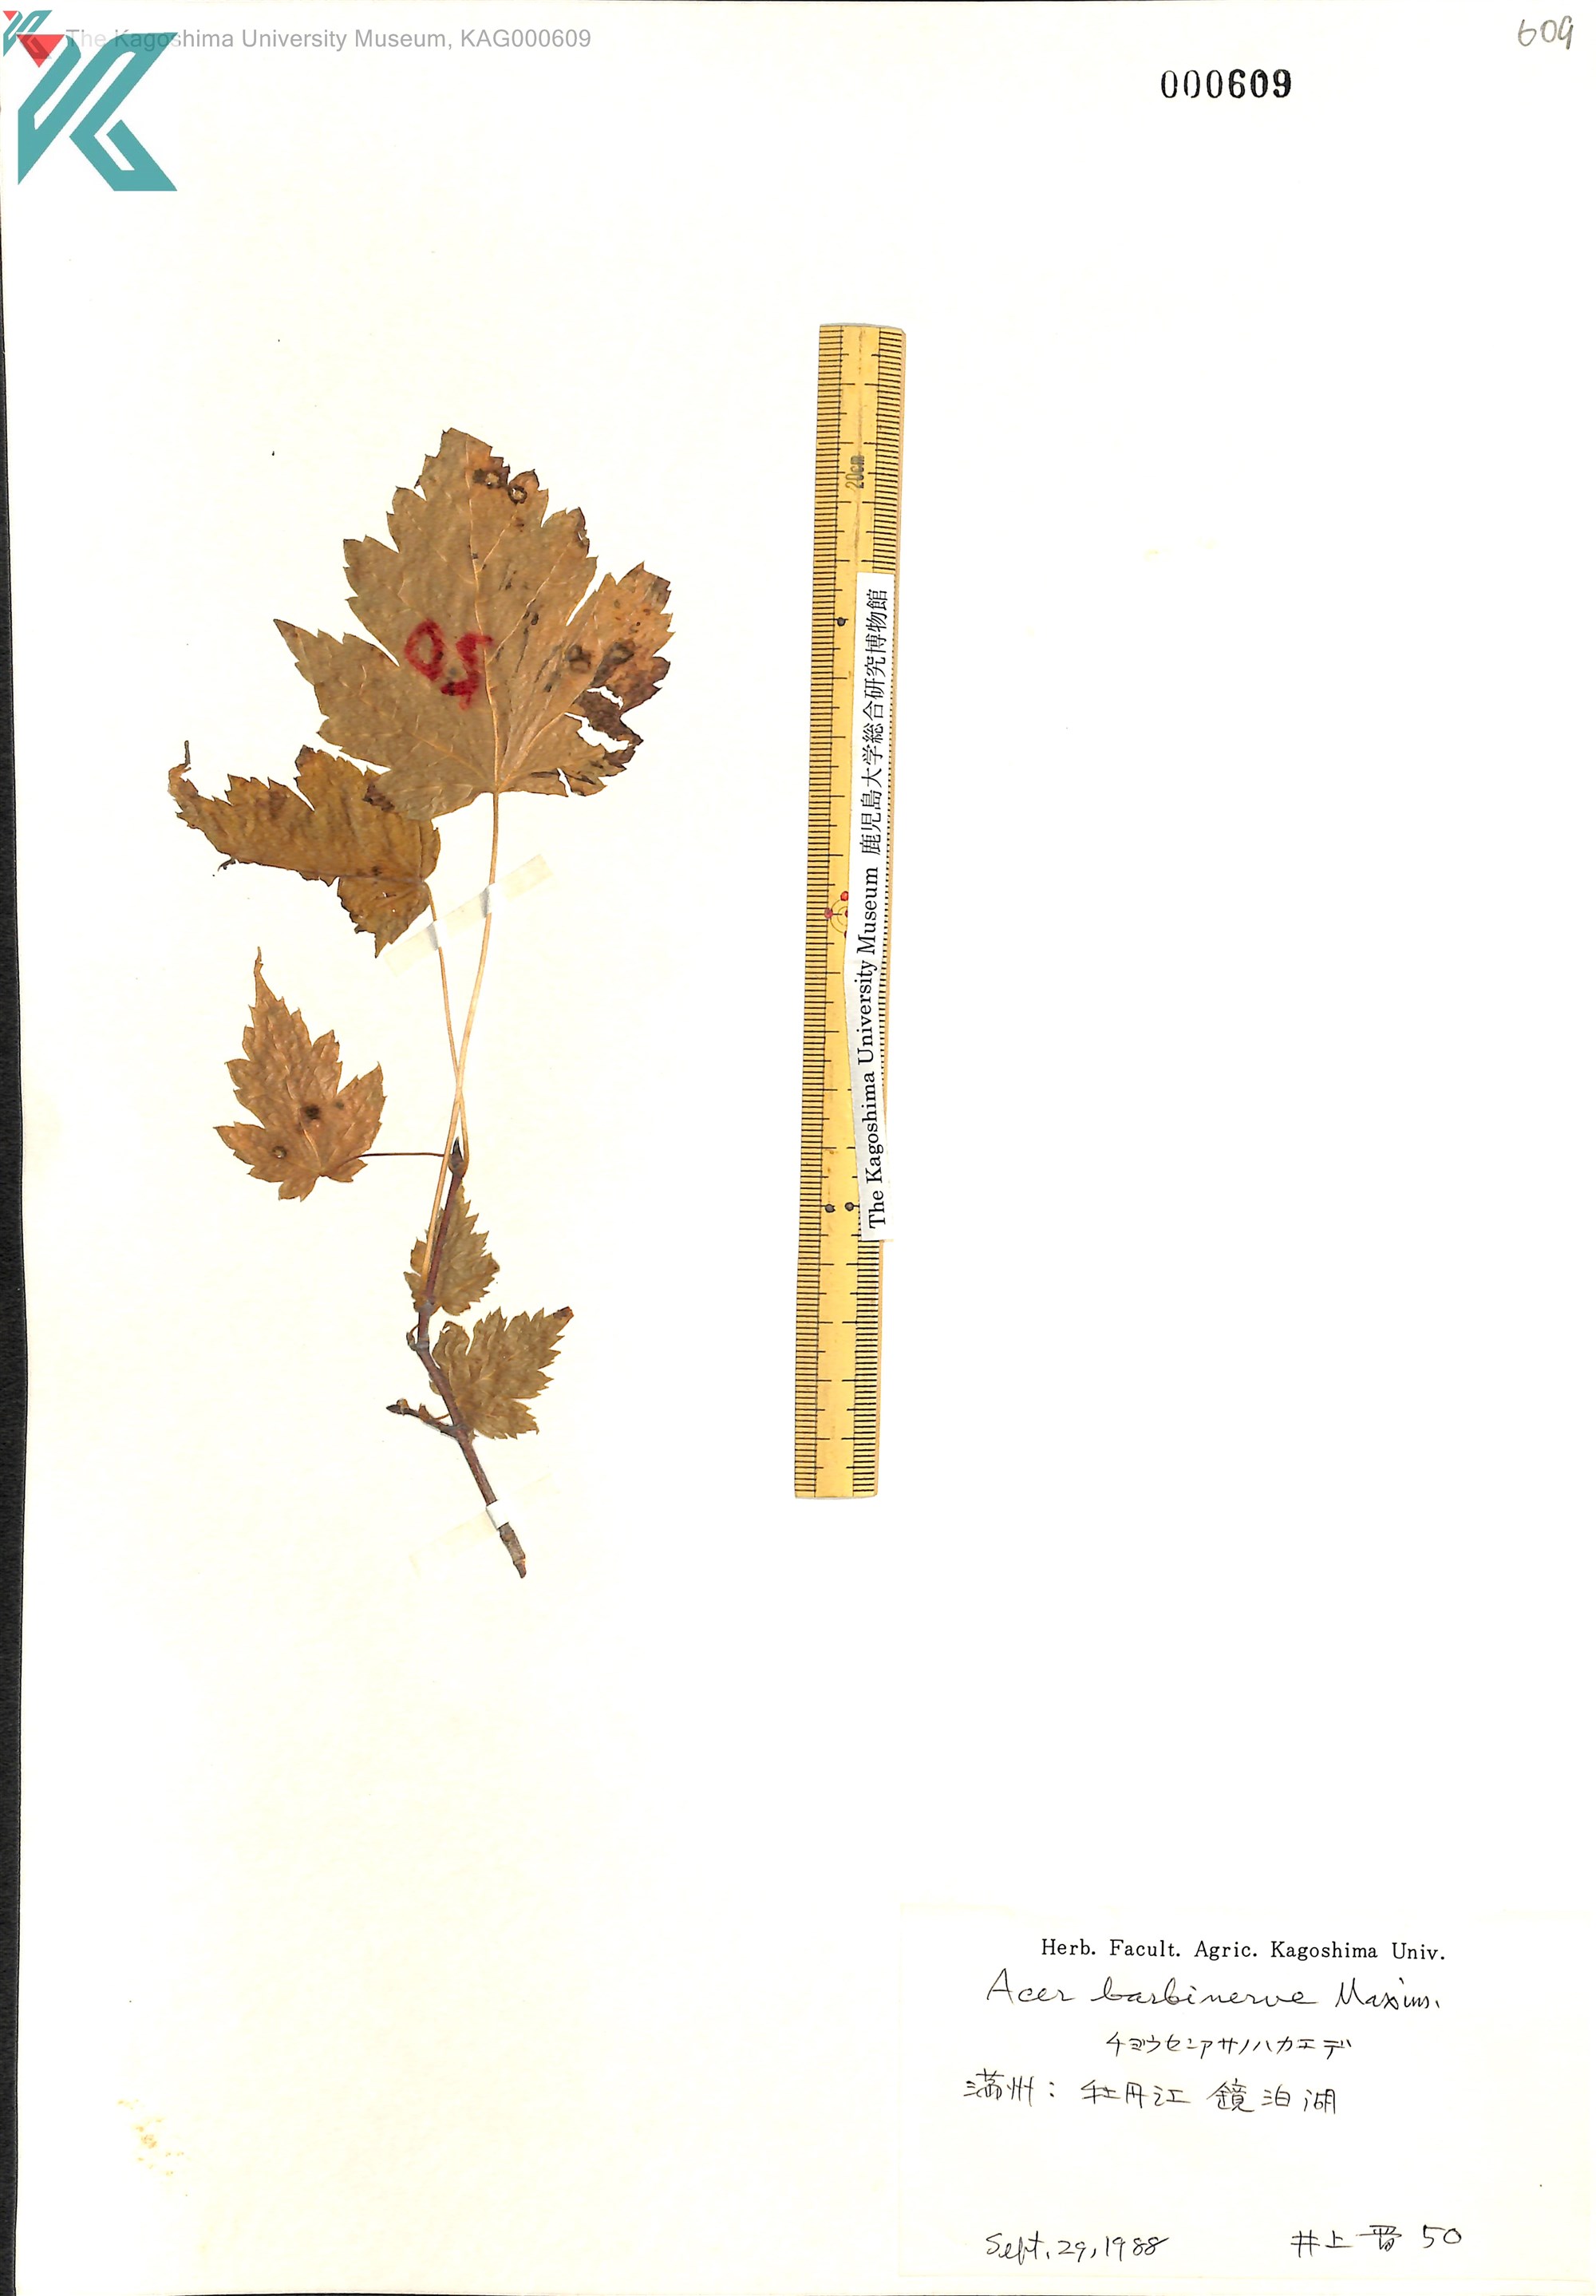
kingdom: Plantae
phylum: Tracheophyta
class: Magnoliopsida
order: Sapindales
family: Sapindaceae
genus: Acer
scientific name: Acer barbinerve
